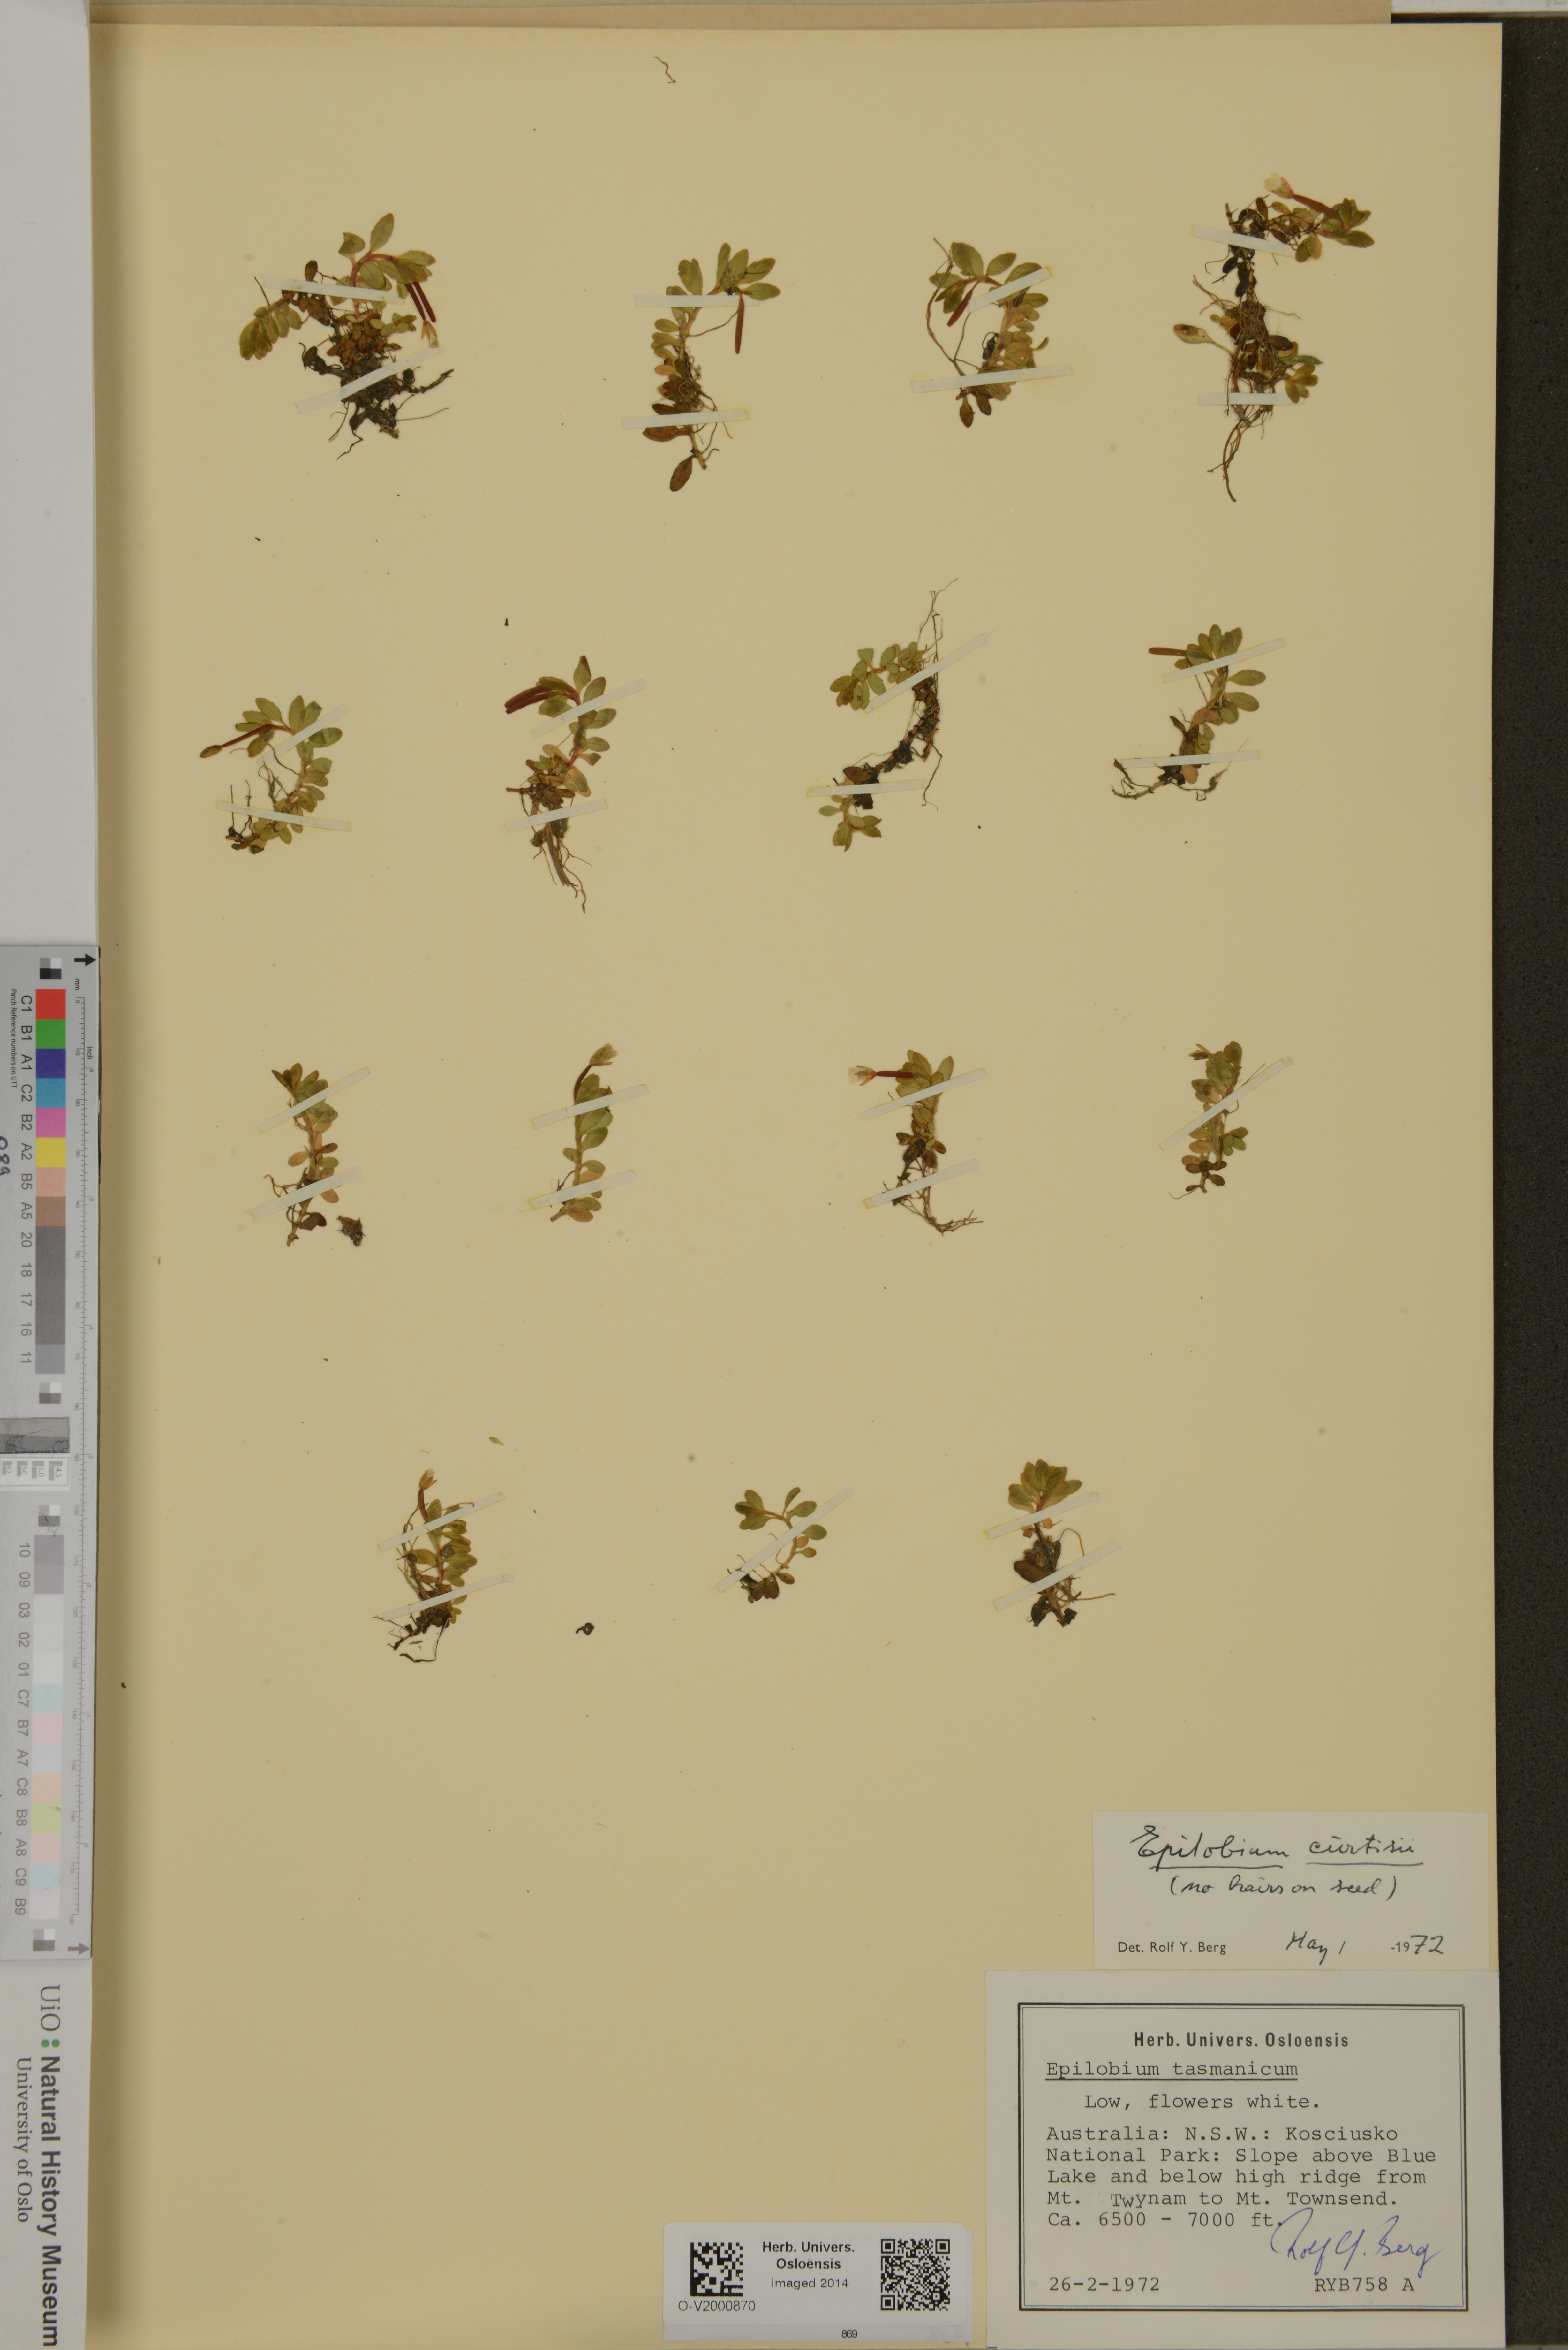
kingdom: Plantae
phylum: Tracheophyta
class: Magnoliopsida
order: Myrtales
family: Onagraceae
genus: Epilobium
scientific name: Epilobium curtisiae
